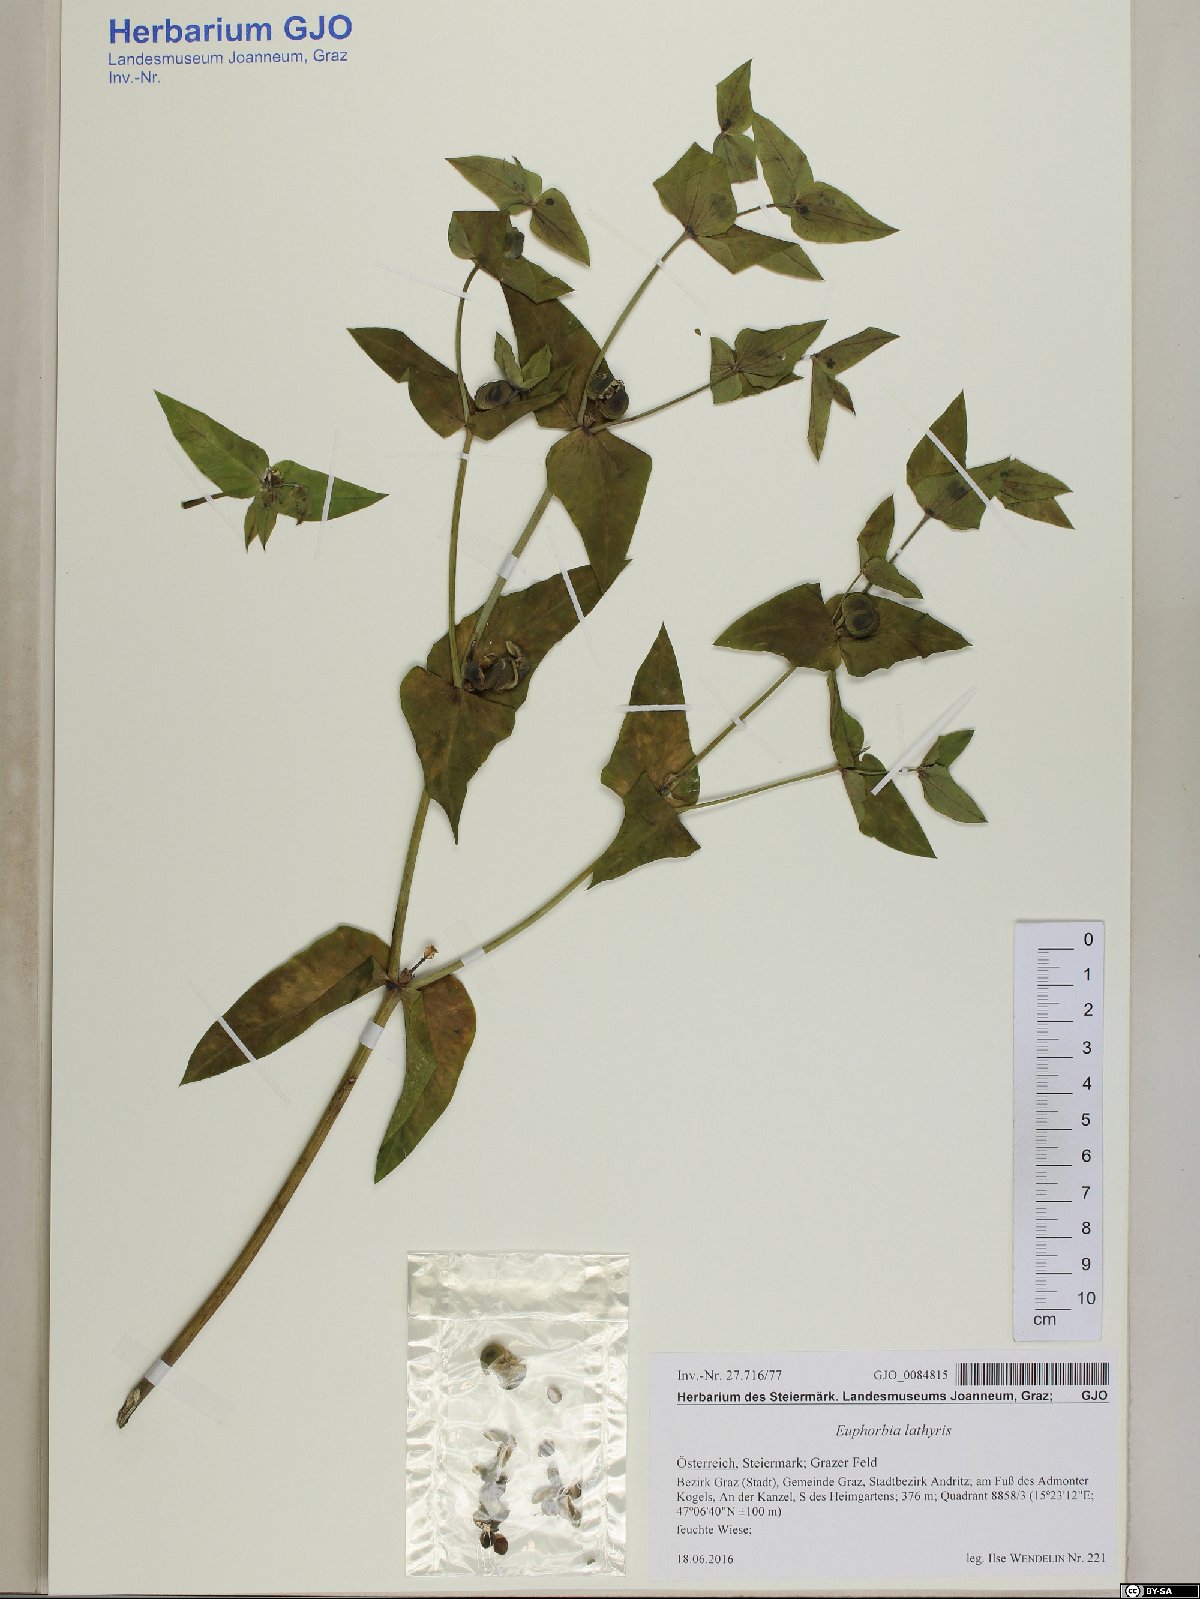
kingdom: Plantae
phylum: Tracheophyta
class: Magnoliopsida
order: Malpighiales
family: Euphorbiaceae
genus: Euphorbia
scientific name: Euphorbia lathyris
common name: Caper spurge
